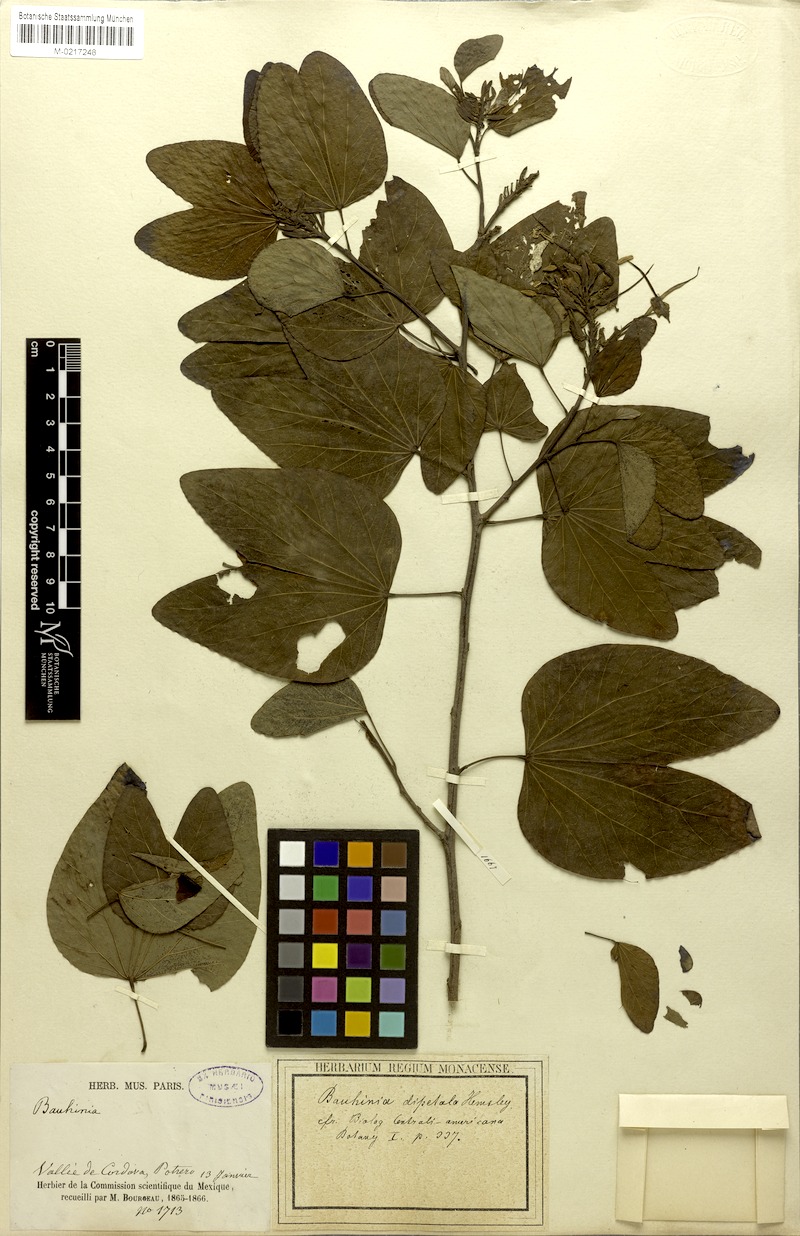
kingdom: Plantae
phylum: Tracheophyta
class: Magnoliopsida
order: Fabales
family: Fabaceae
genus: Bauhinia
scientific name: Bauhinia dipetala
